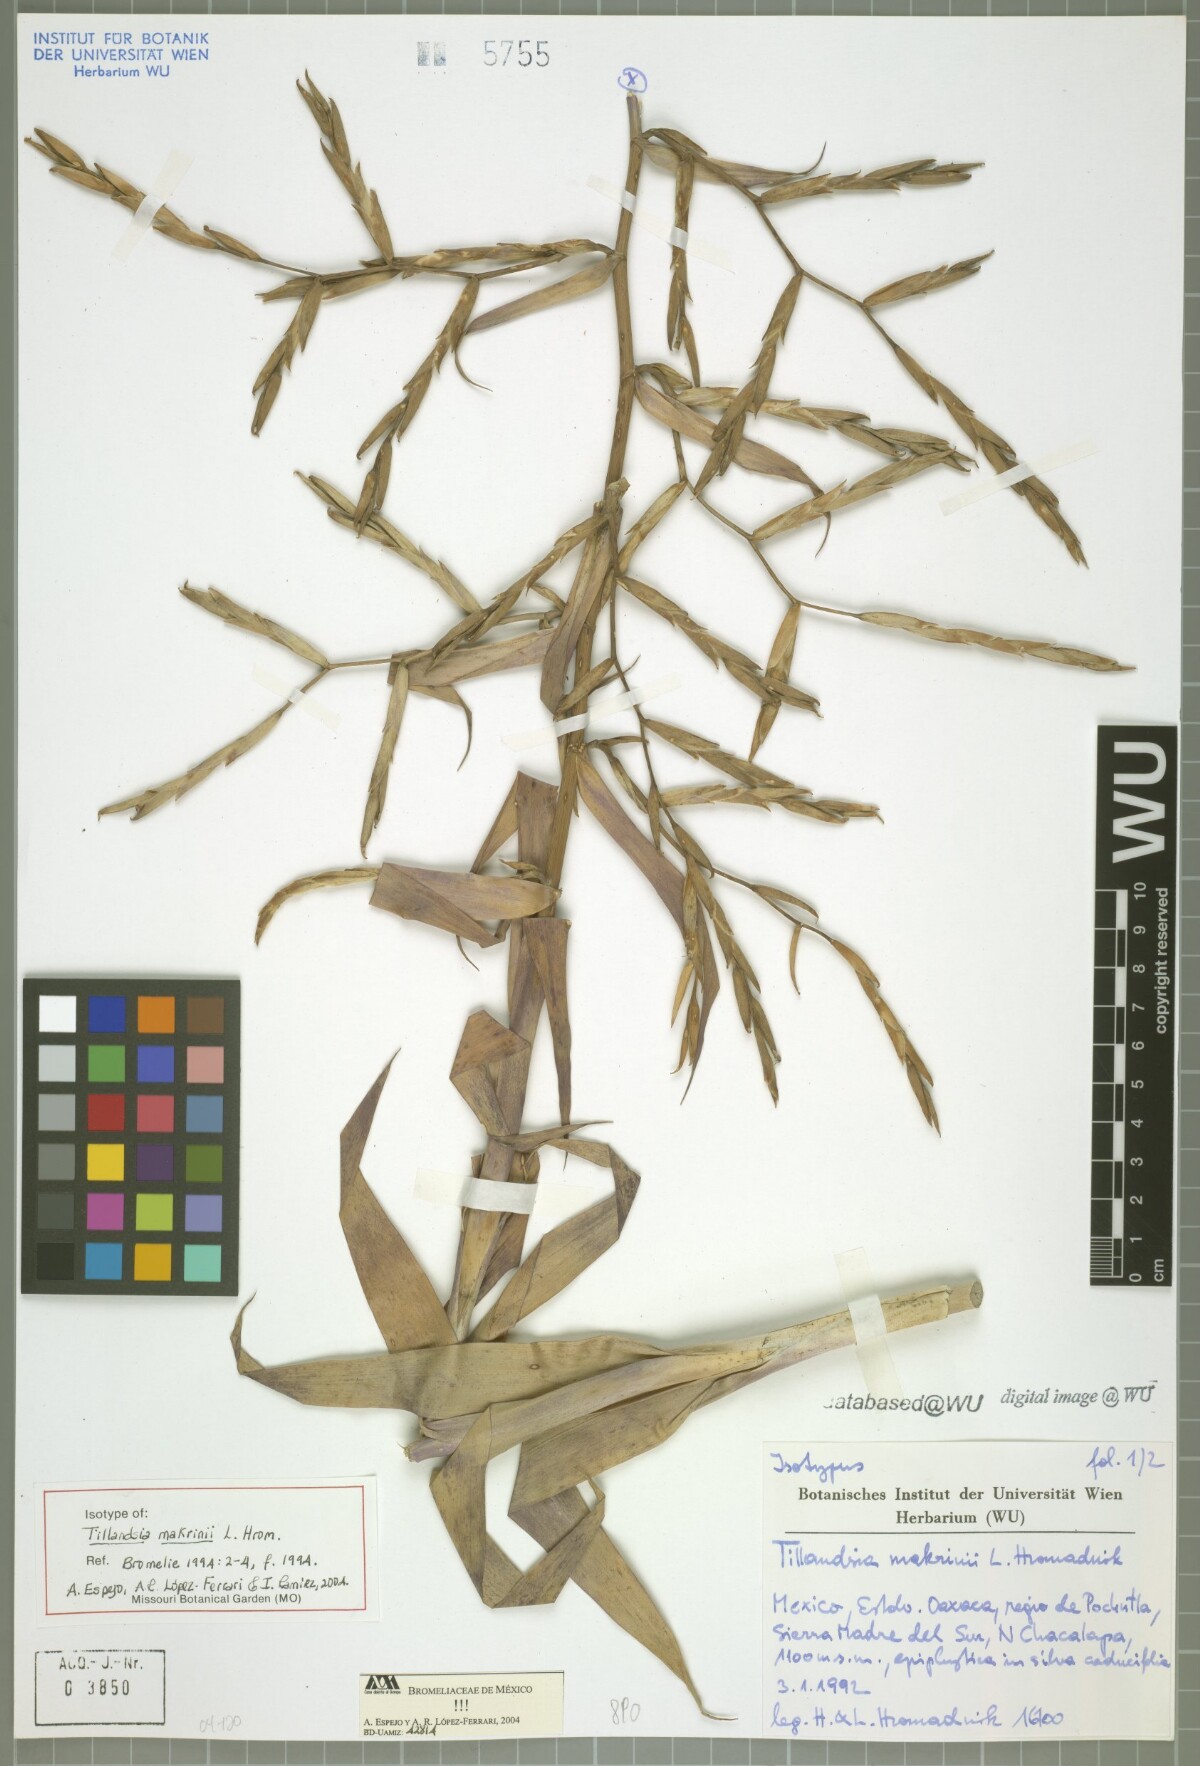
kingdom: Plantae
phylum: Tracheophyta
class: Liliopsida
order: Poales
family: Bromeliaceae
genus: Tillandsia
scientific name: Tillandsia makrinii
